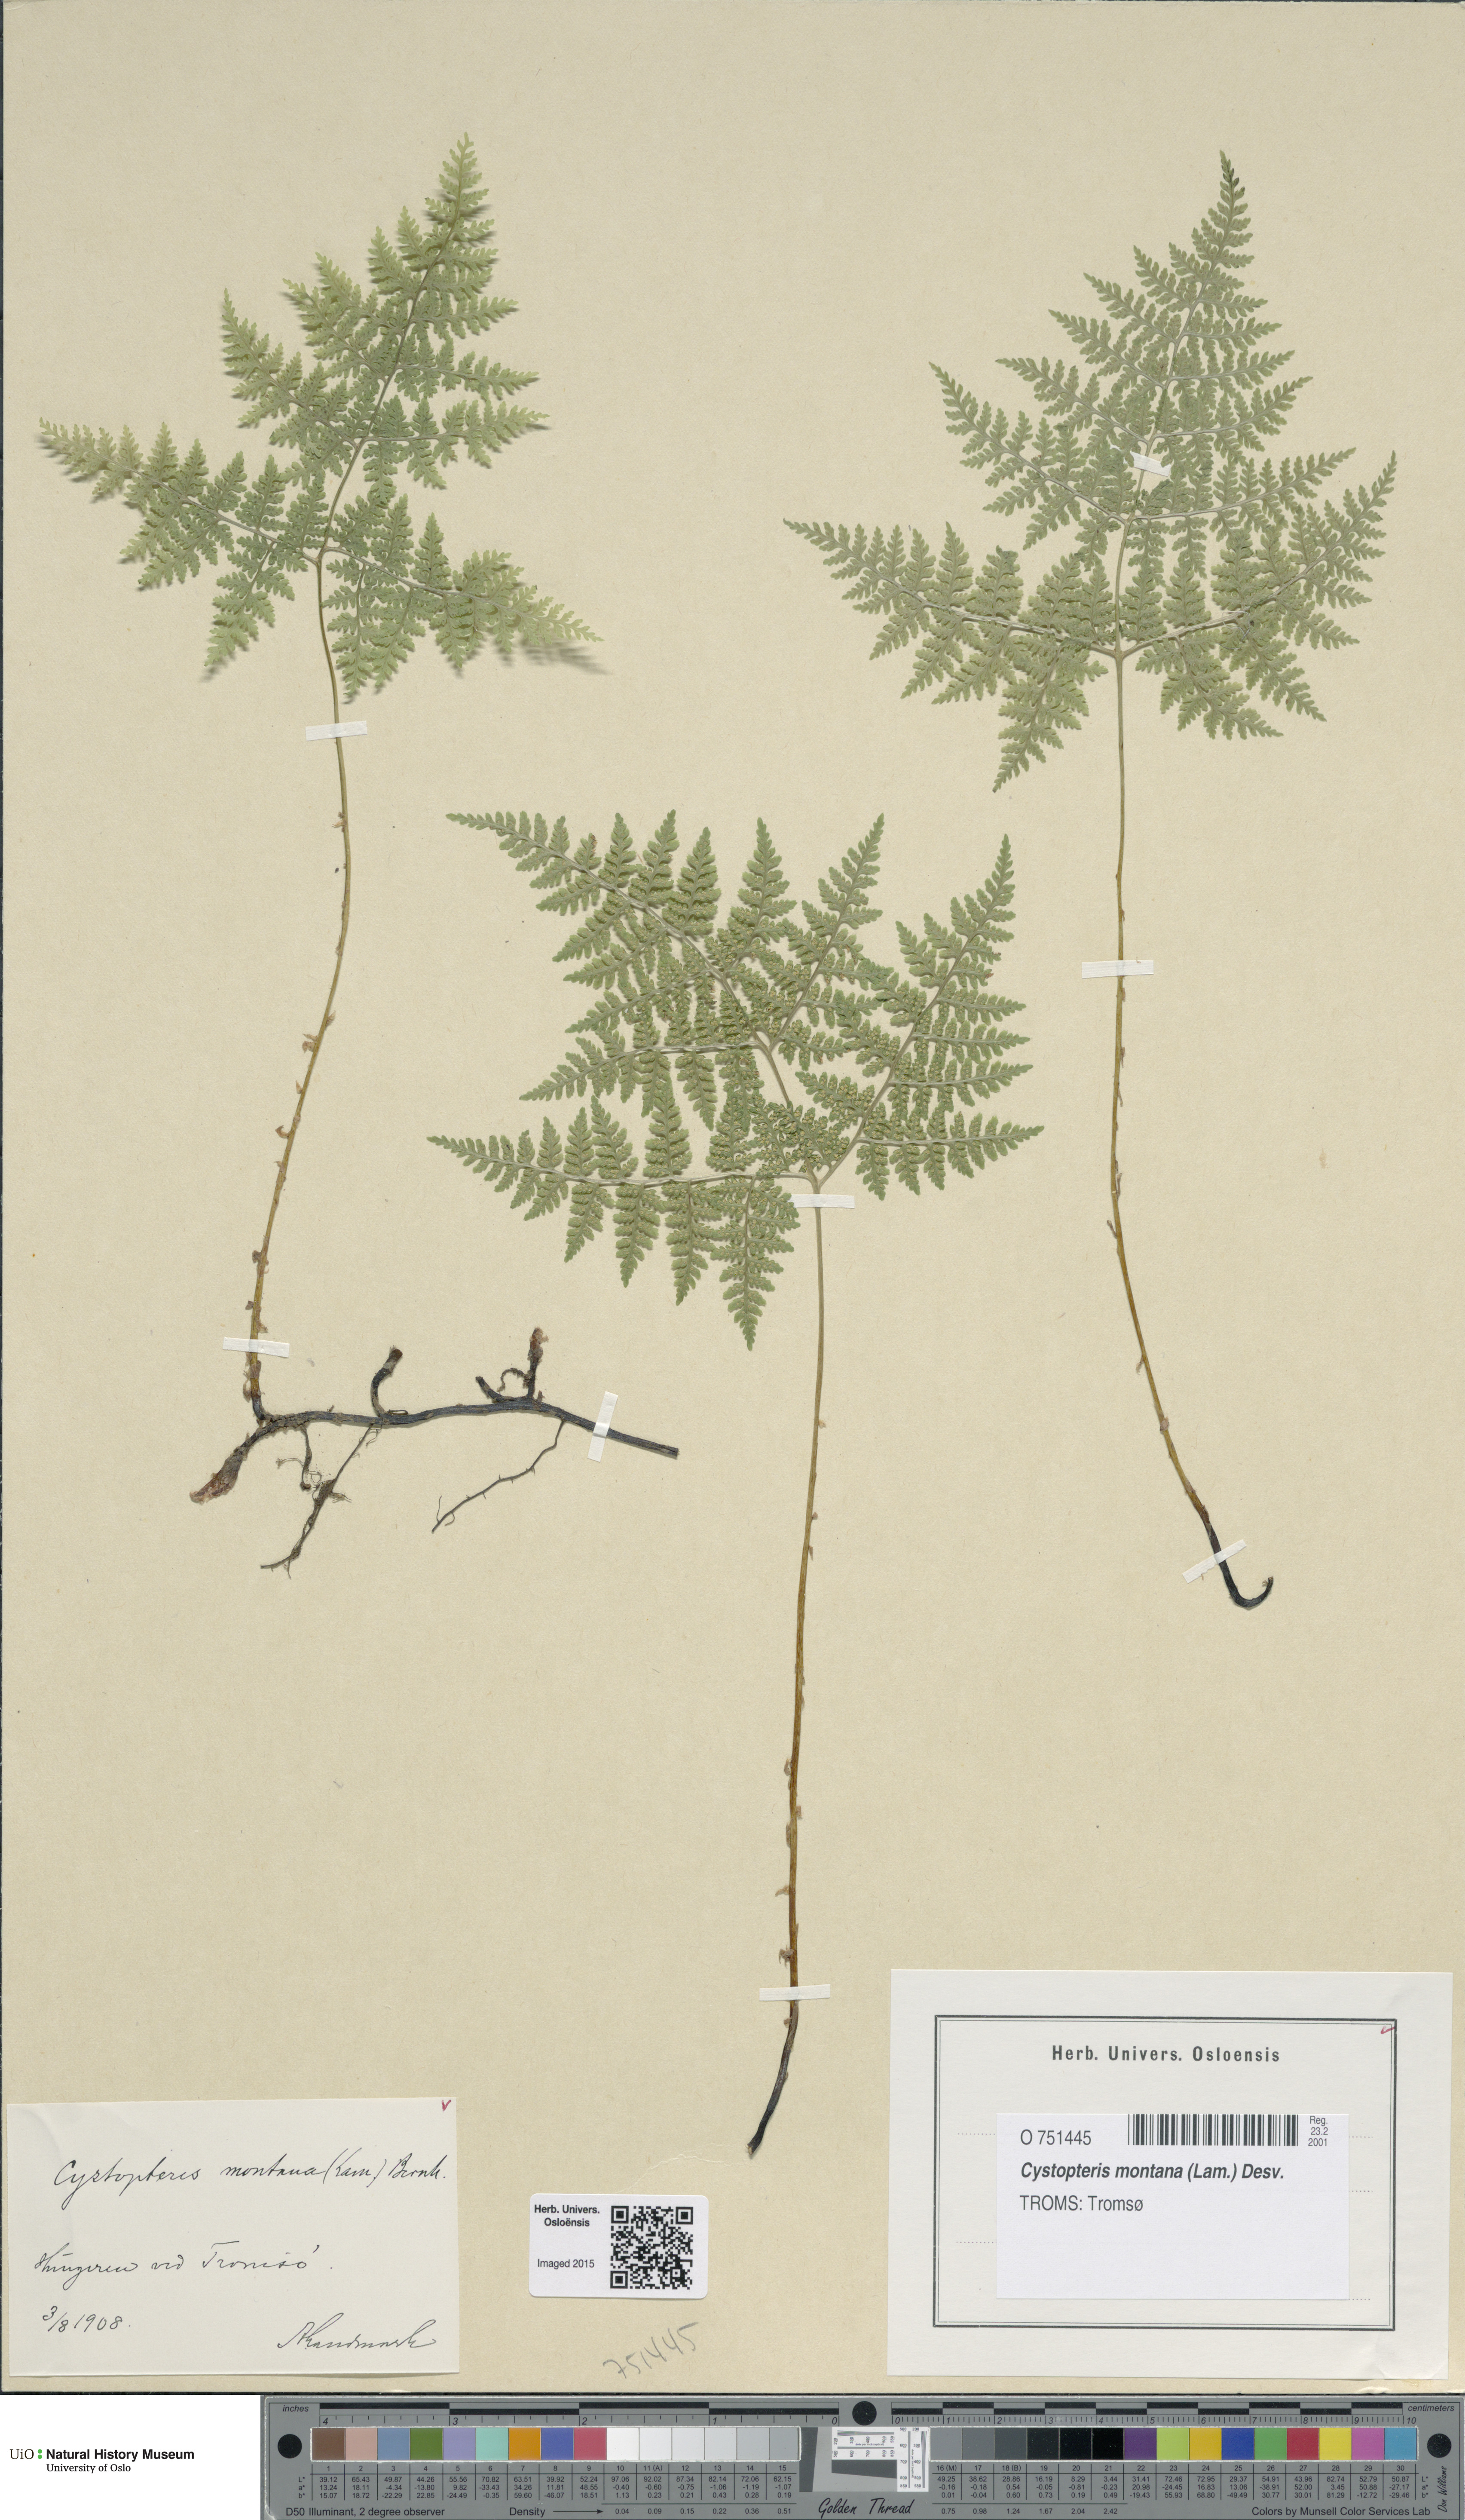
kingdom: Plantae
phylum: Tracheophyta
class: Polypodiopsida
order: Polypodiales
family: Cystopteridaceae
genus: Cystopteris
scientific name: Cystopteris montana
